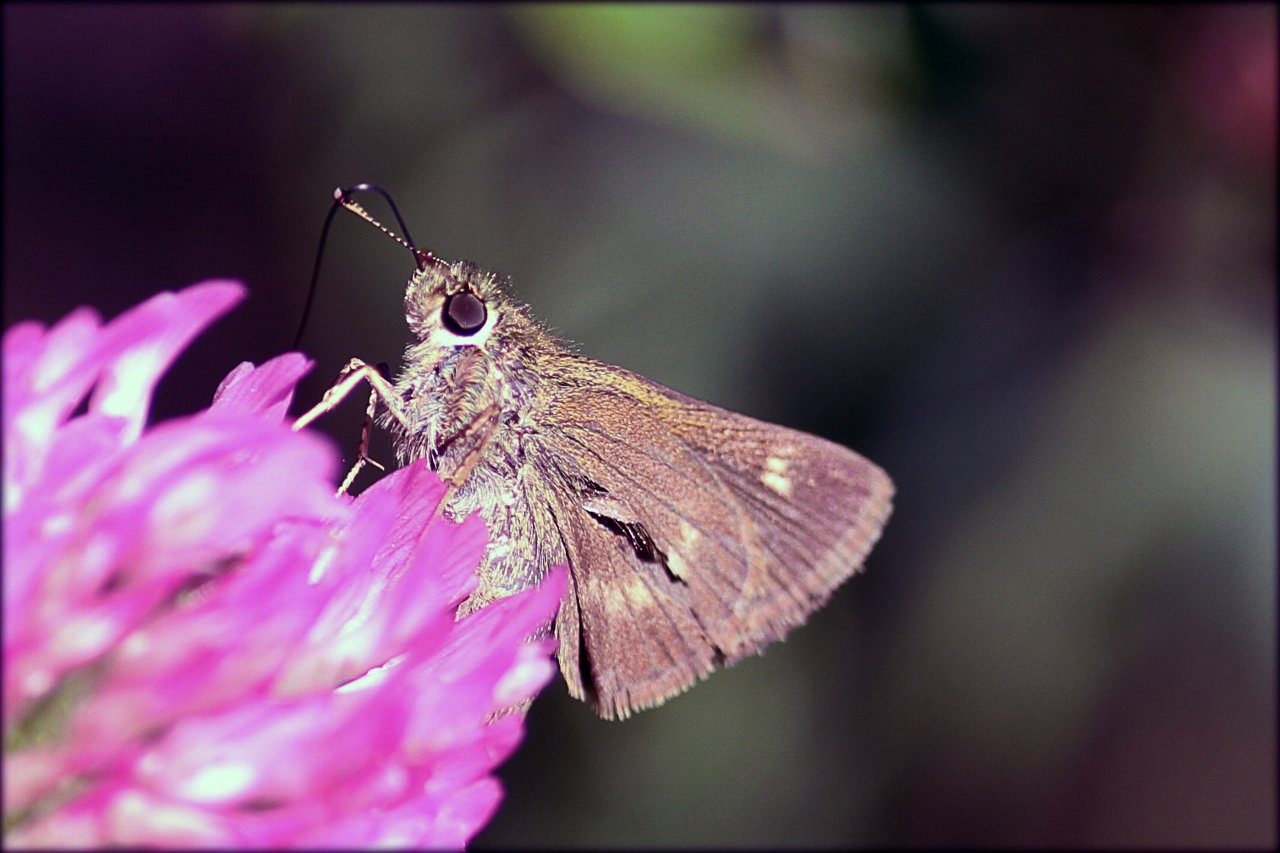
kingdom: Animalia
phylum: Arthropoda
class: Insecta
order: Lepidoptera
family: Hesperiidae
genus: Polites
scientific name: Polites egeremet
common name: Northern Broken-Dash
